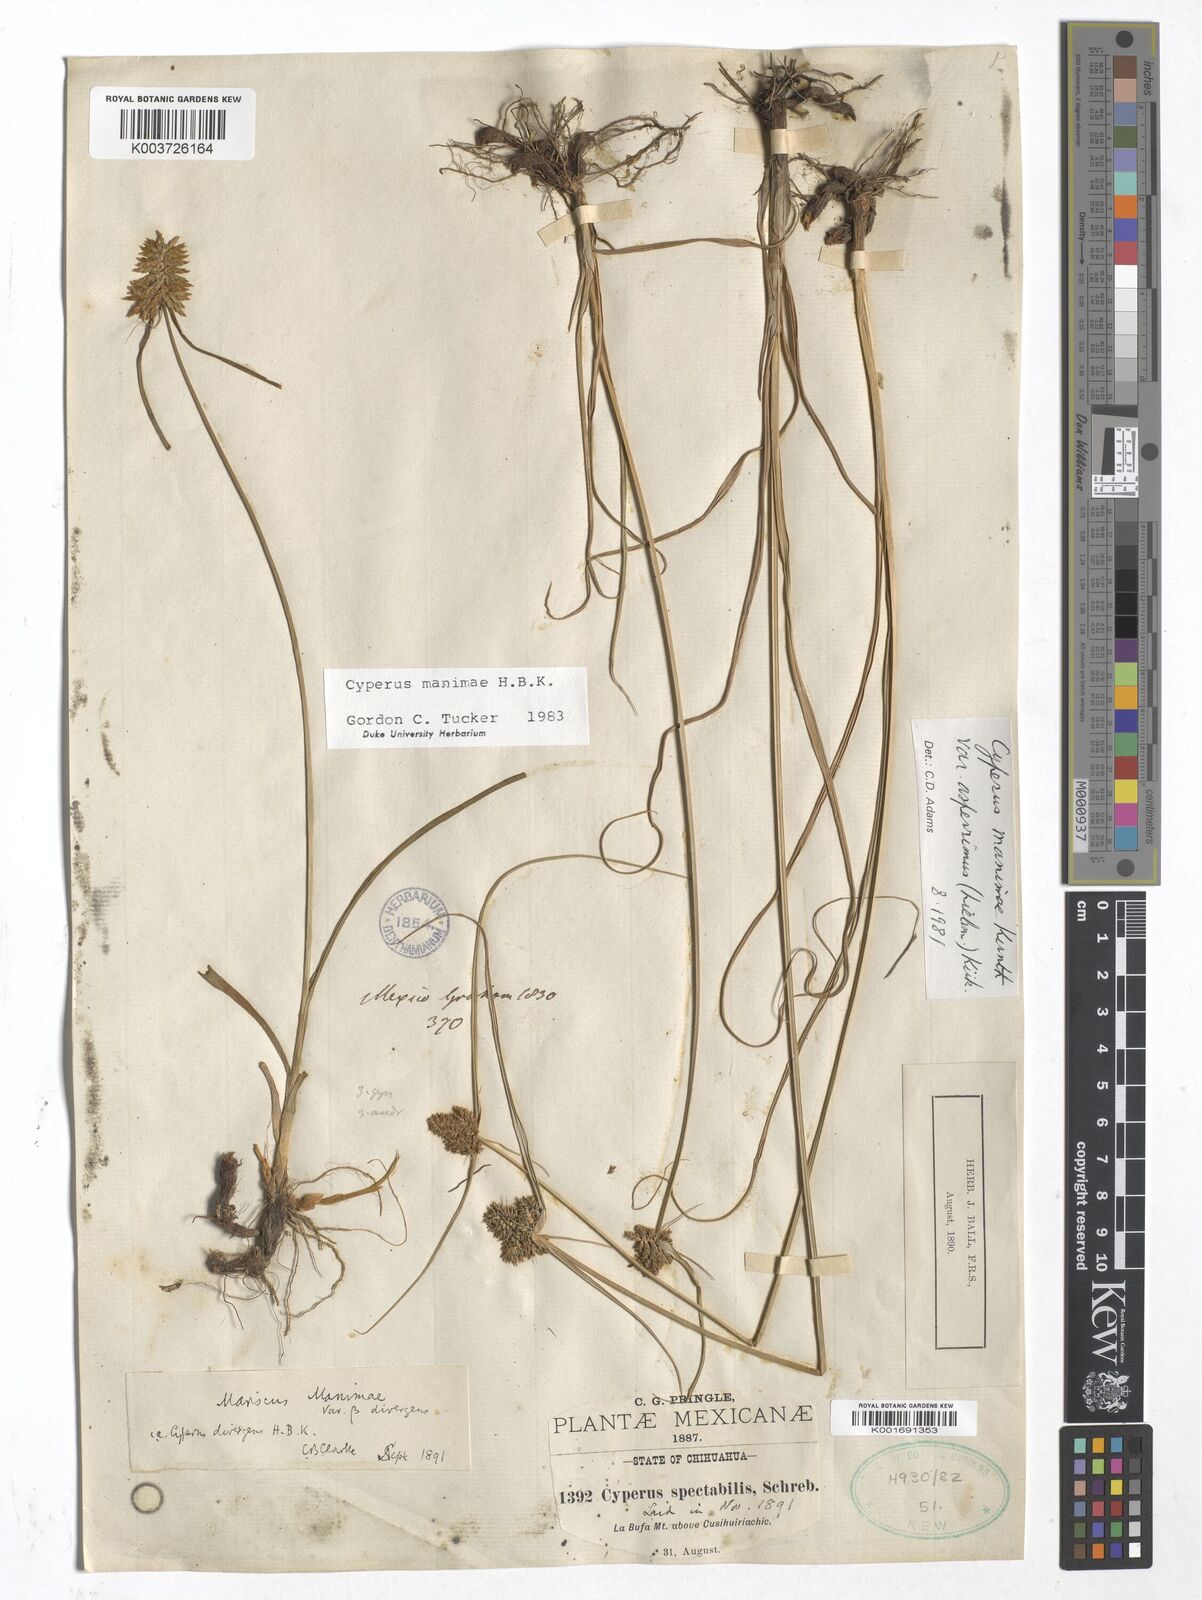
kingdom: Plantae
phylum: Tracheophyta
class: Liliopsida
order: Poales
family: Cyperaceae
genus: Cyperus
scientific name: Cyperus manimae
